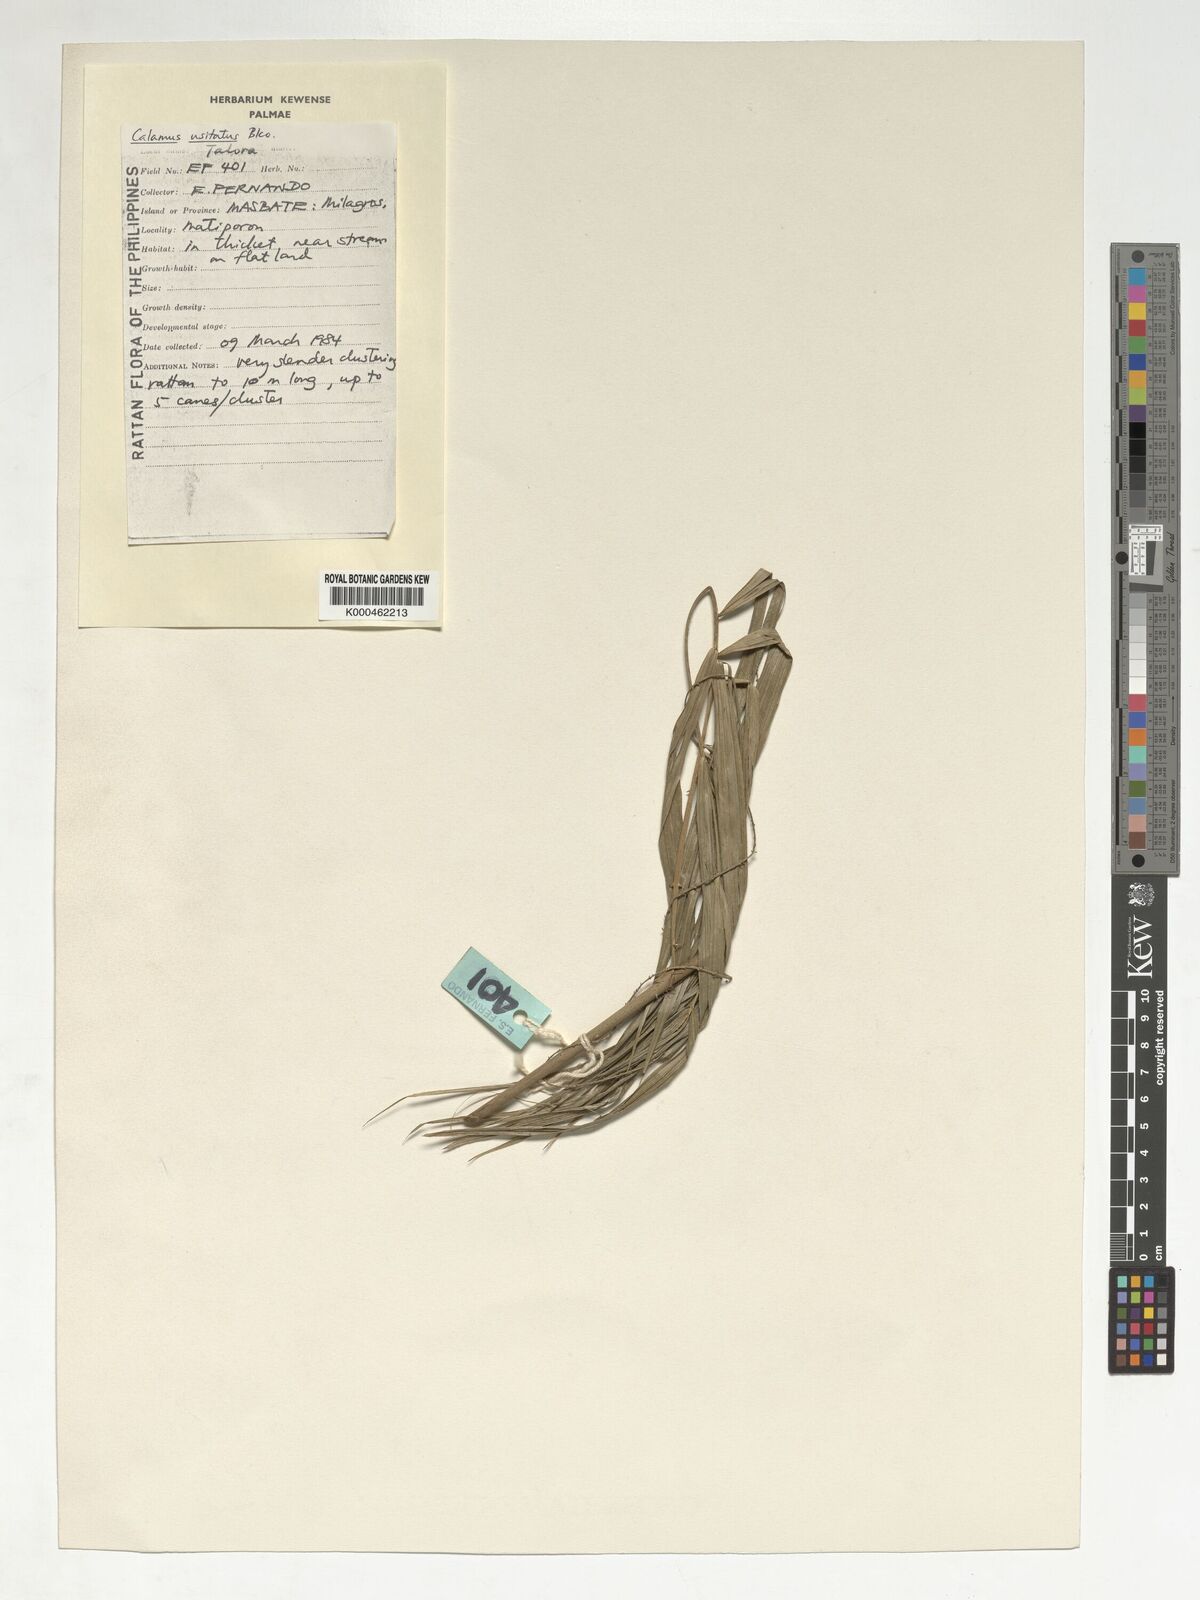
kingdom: Plantae
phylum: Tracheophyta
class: Liliopsida
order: Arecales
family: Arecaceae
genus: Calamus
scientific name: Calamus usitatus
